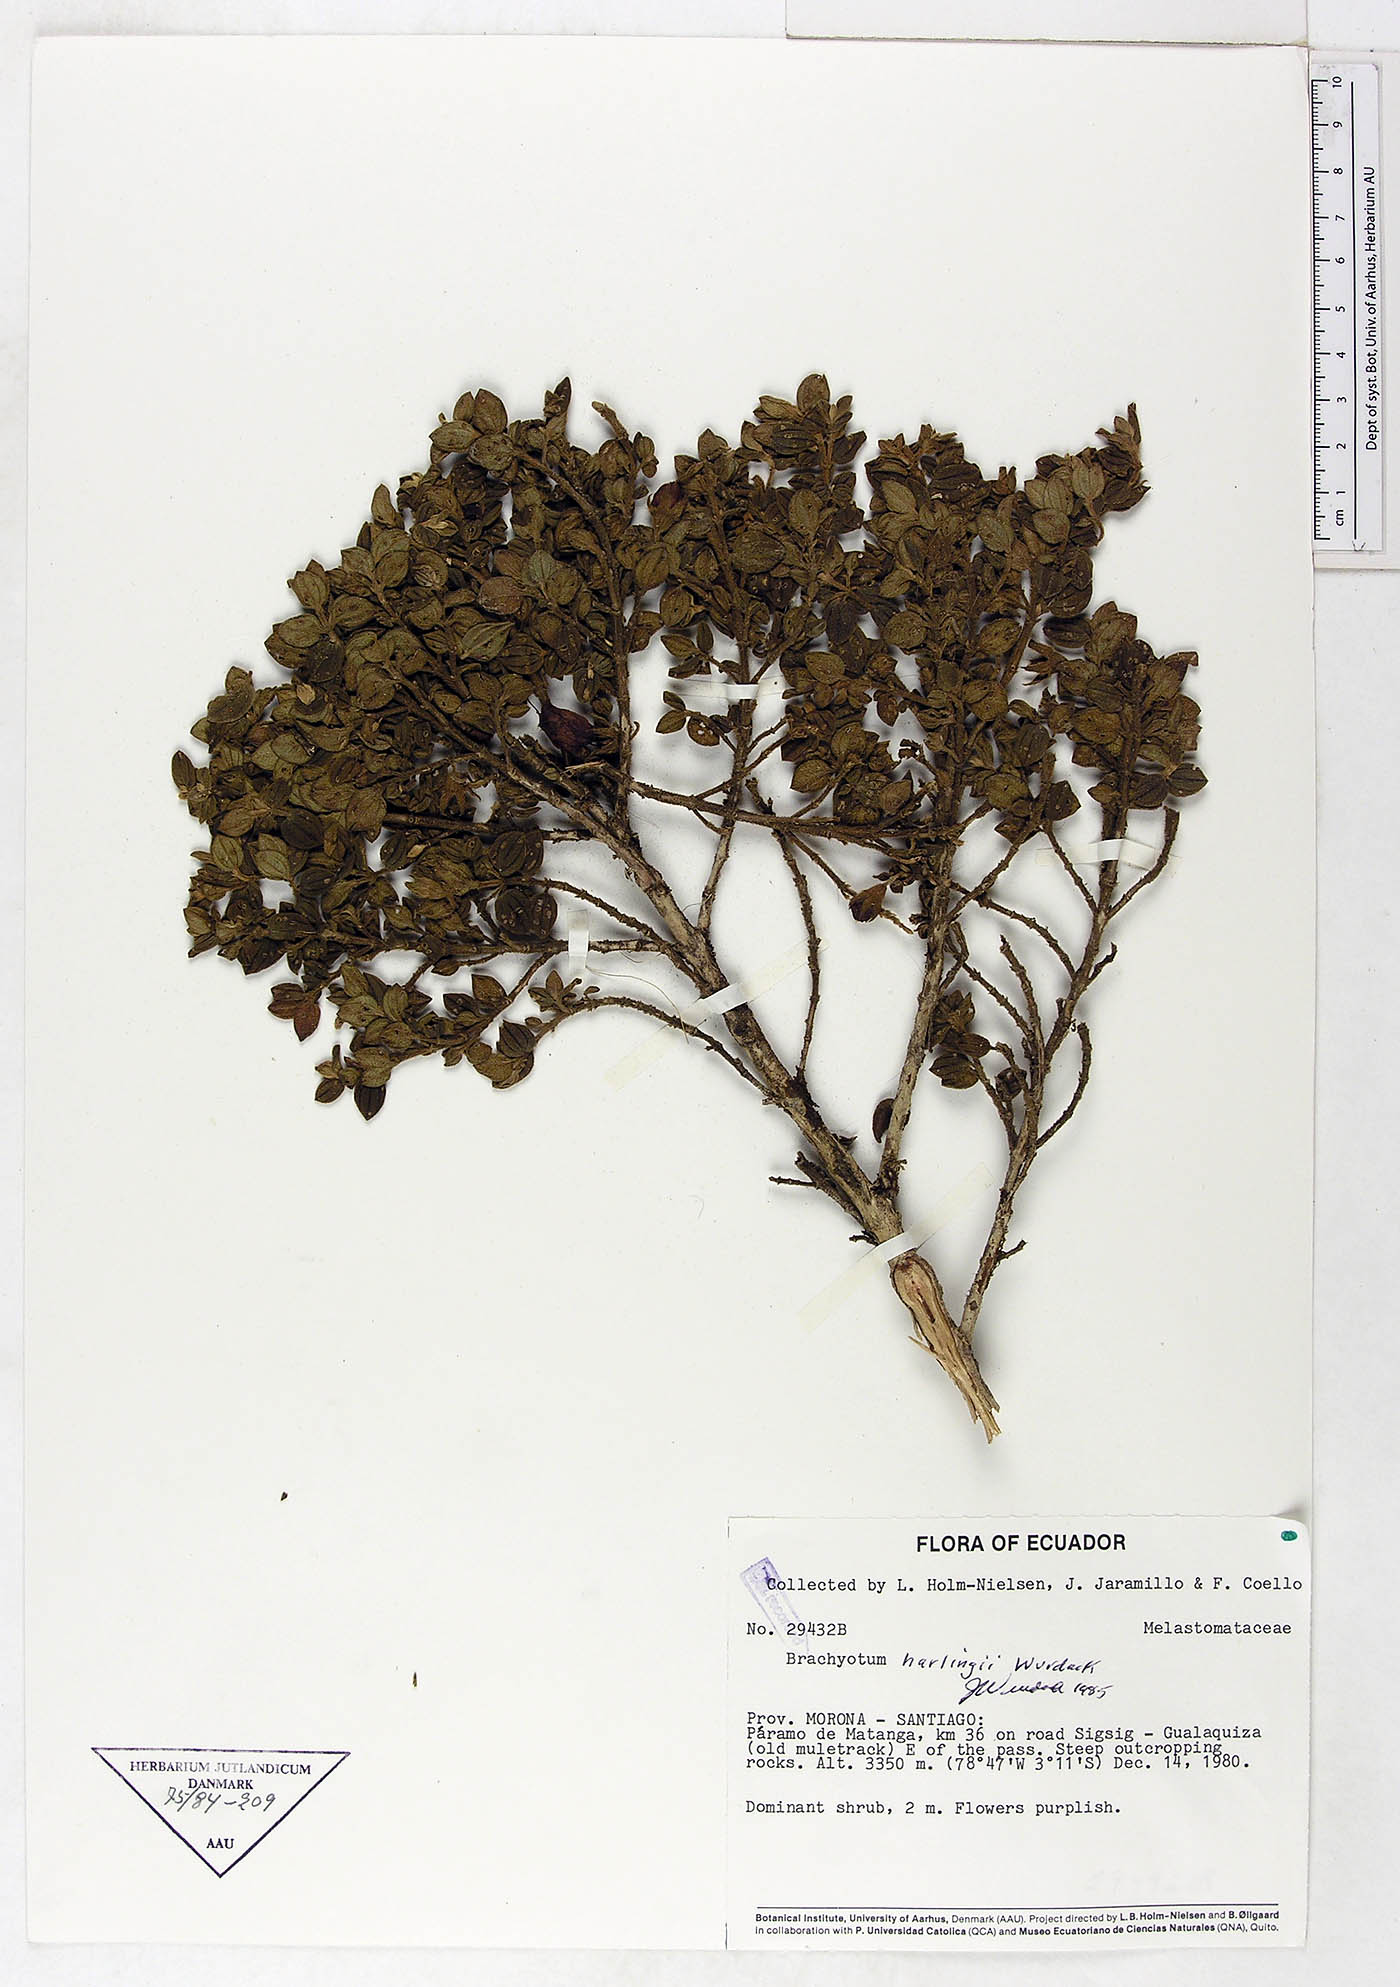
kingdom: Plantae
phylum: Tracheophyta
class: Magnoliopsida
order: Myrtales
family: Melastomataceae
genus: Brachyotum
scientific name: Brachyotum harlingii
